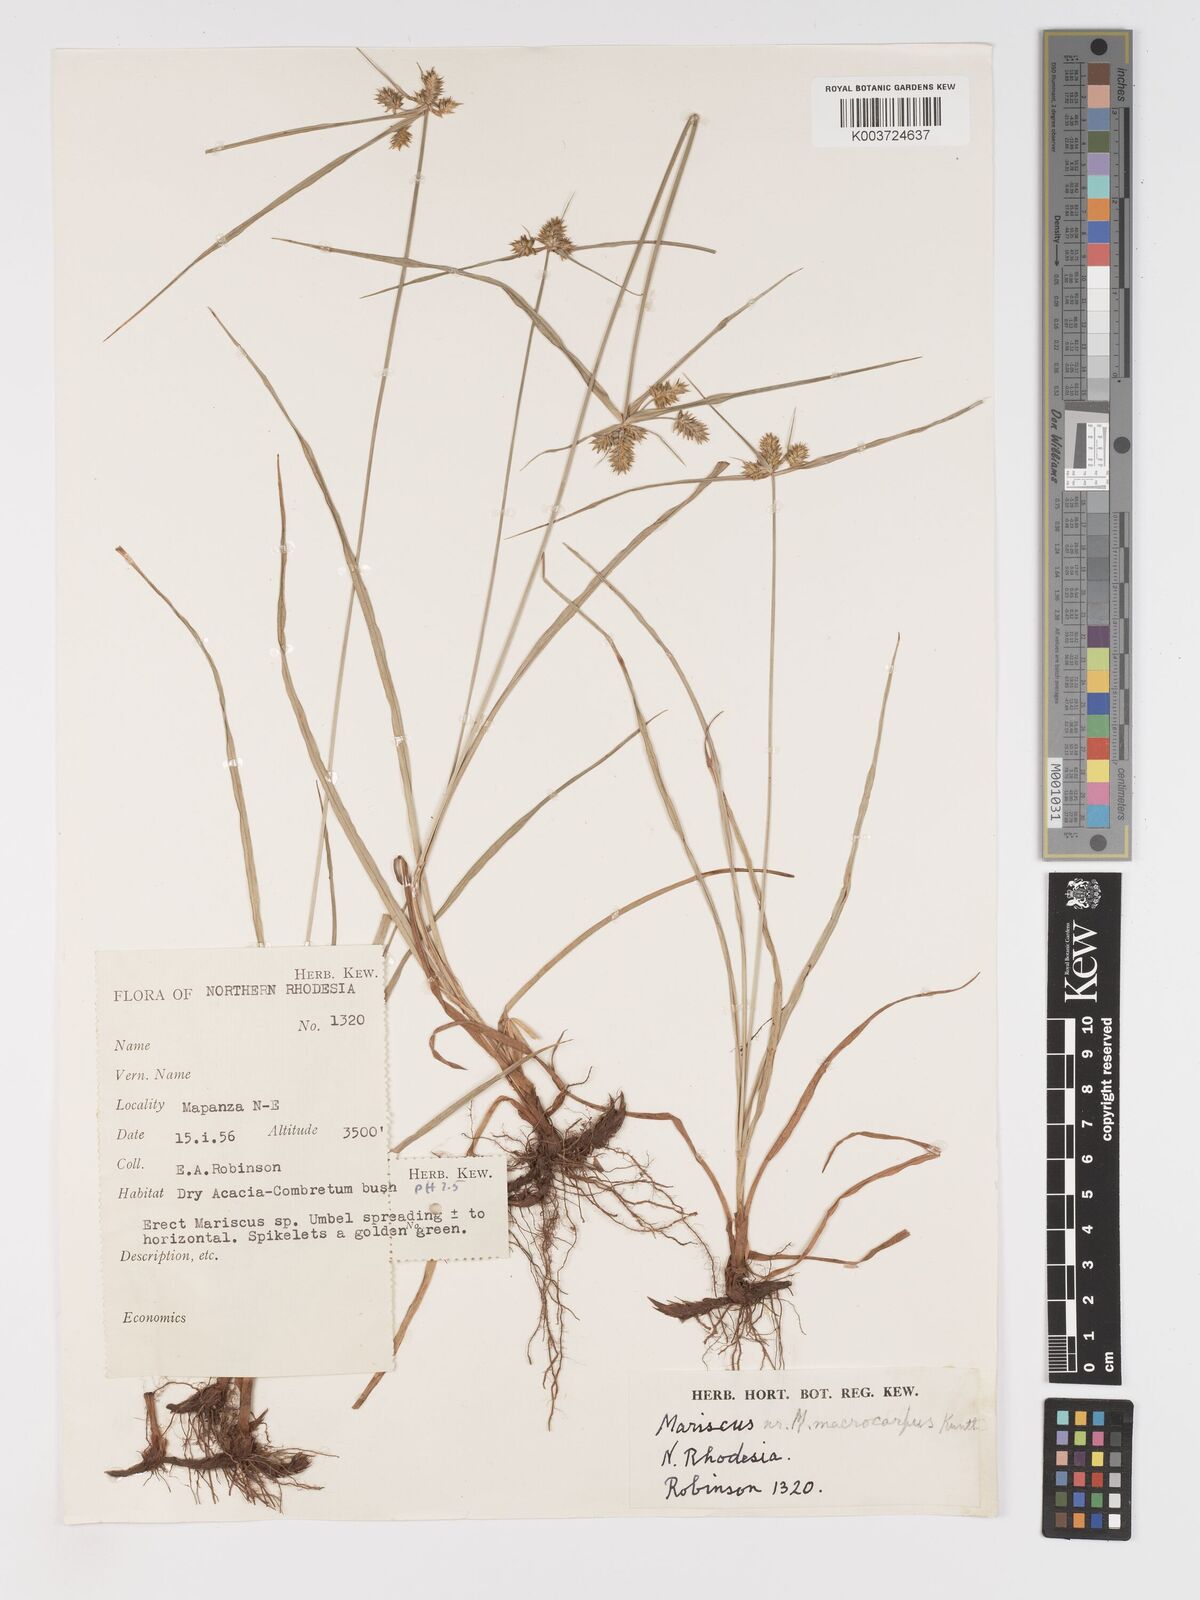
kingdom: Plantae
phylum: Tracheophyta
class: Liliopsida
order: Poales
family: Cyperaceae
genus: Cyperus
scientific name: Cyperus myrmecias
